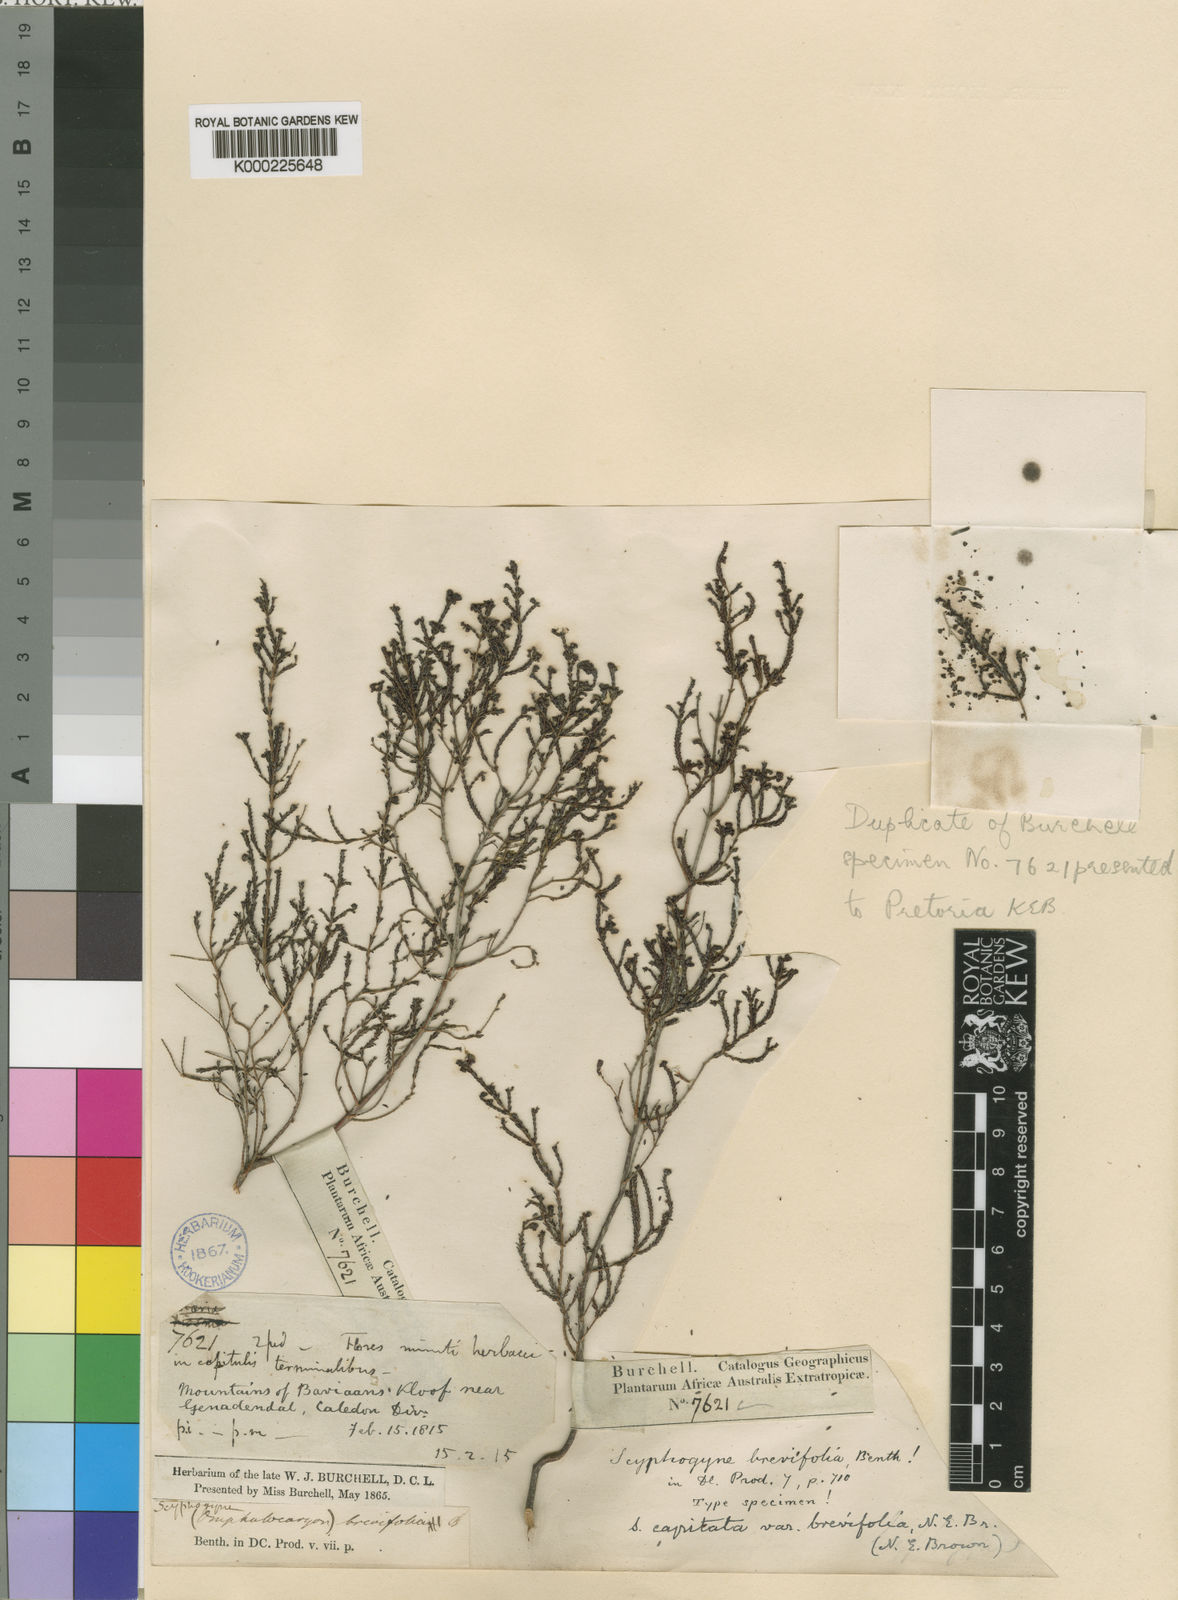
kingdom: Plantae
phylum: Tracheophyta
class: Magnoliopsida
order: Ericales
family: Ericaceae
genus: Erica
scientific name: Erica phacelanthera
